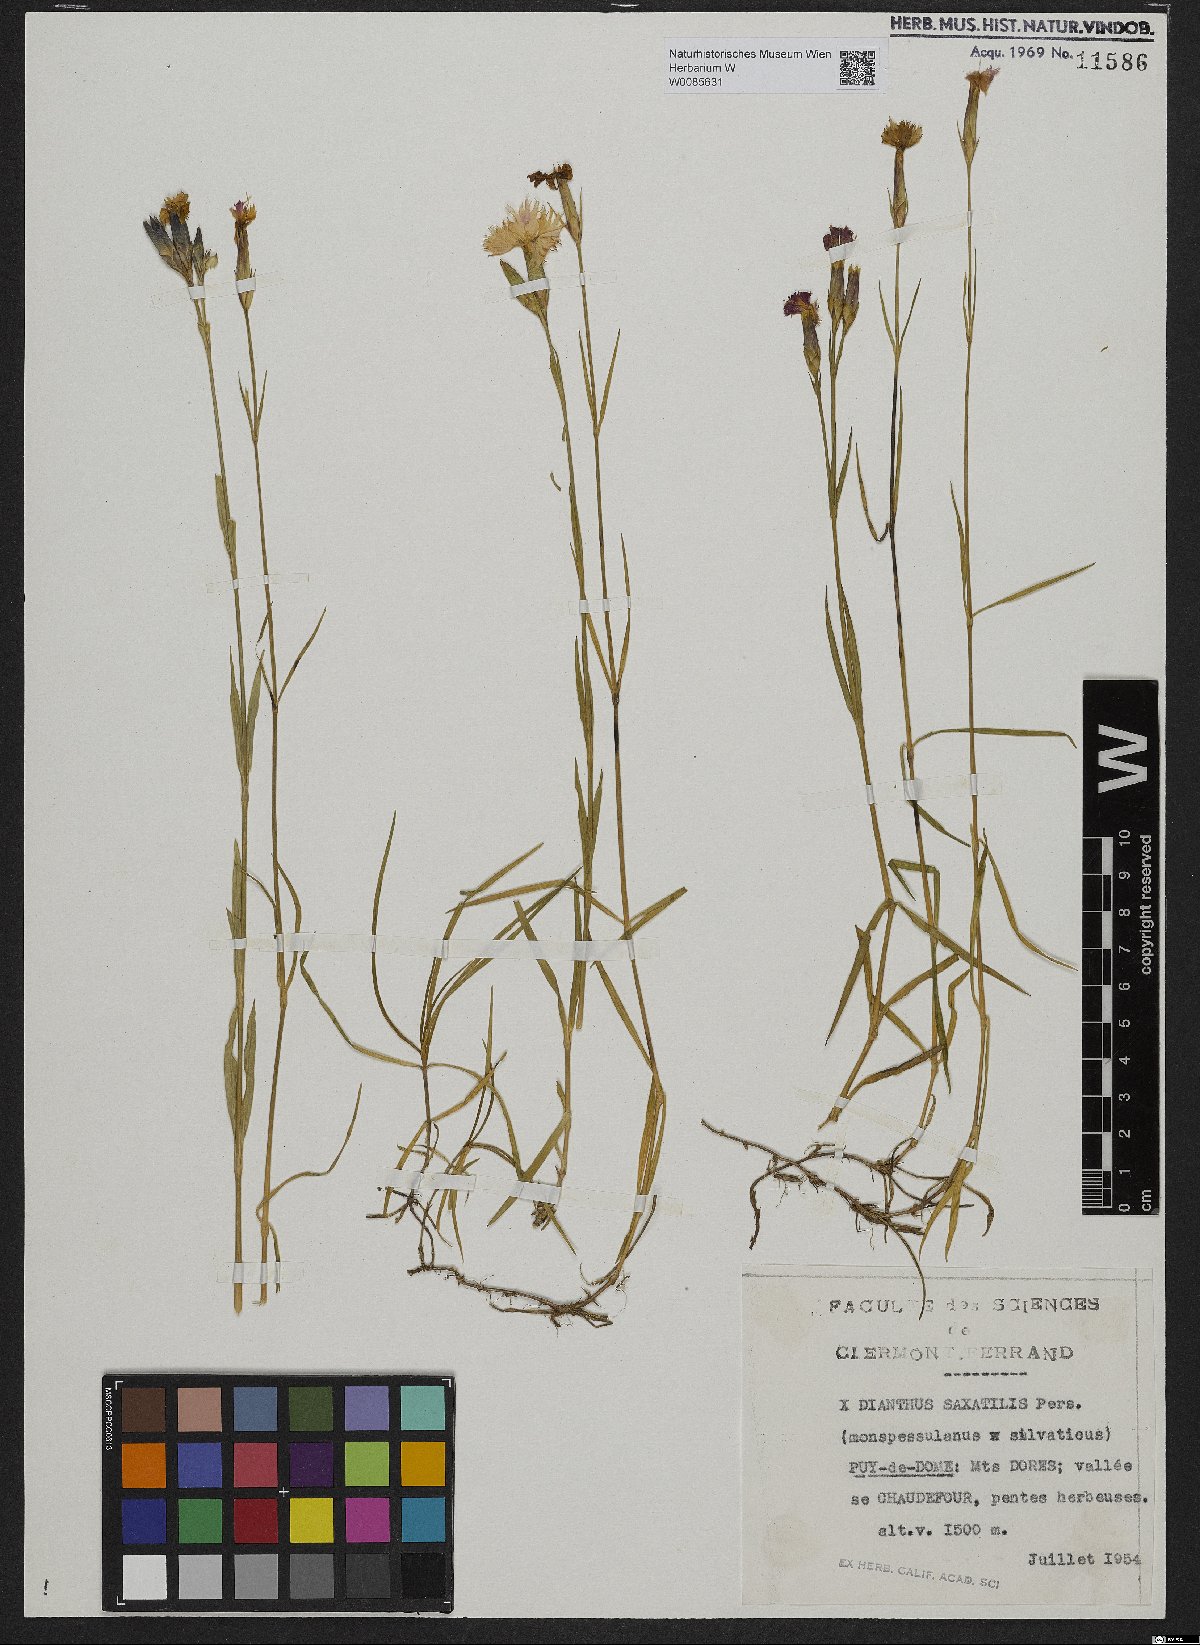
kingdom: Plantae
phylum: Tracheophyta
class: Magnoliopsida
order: Caryophyllales
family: Caryophyllaceae
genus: Dianthus
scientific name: Dianthus hyssopifolius
